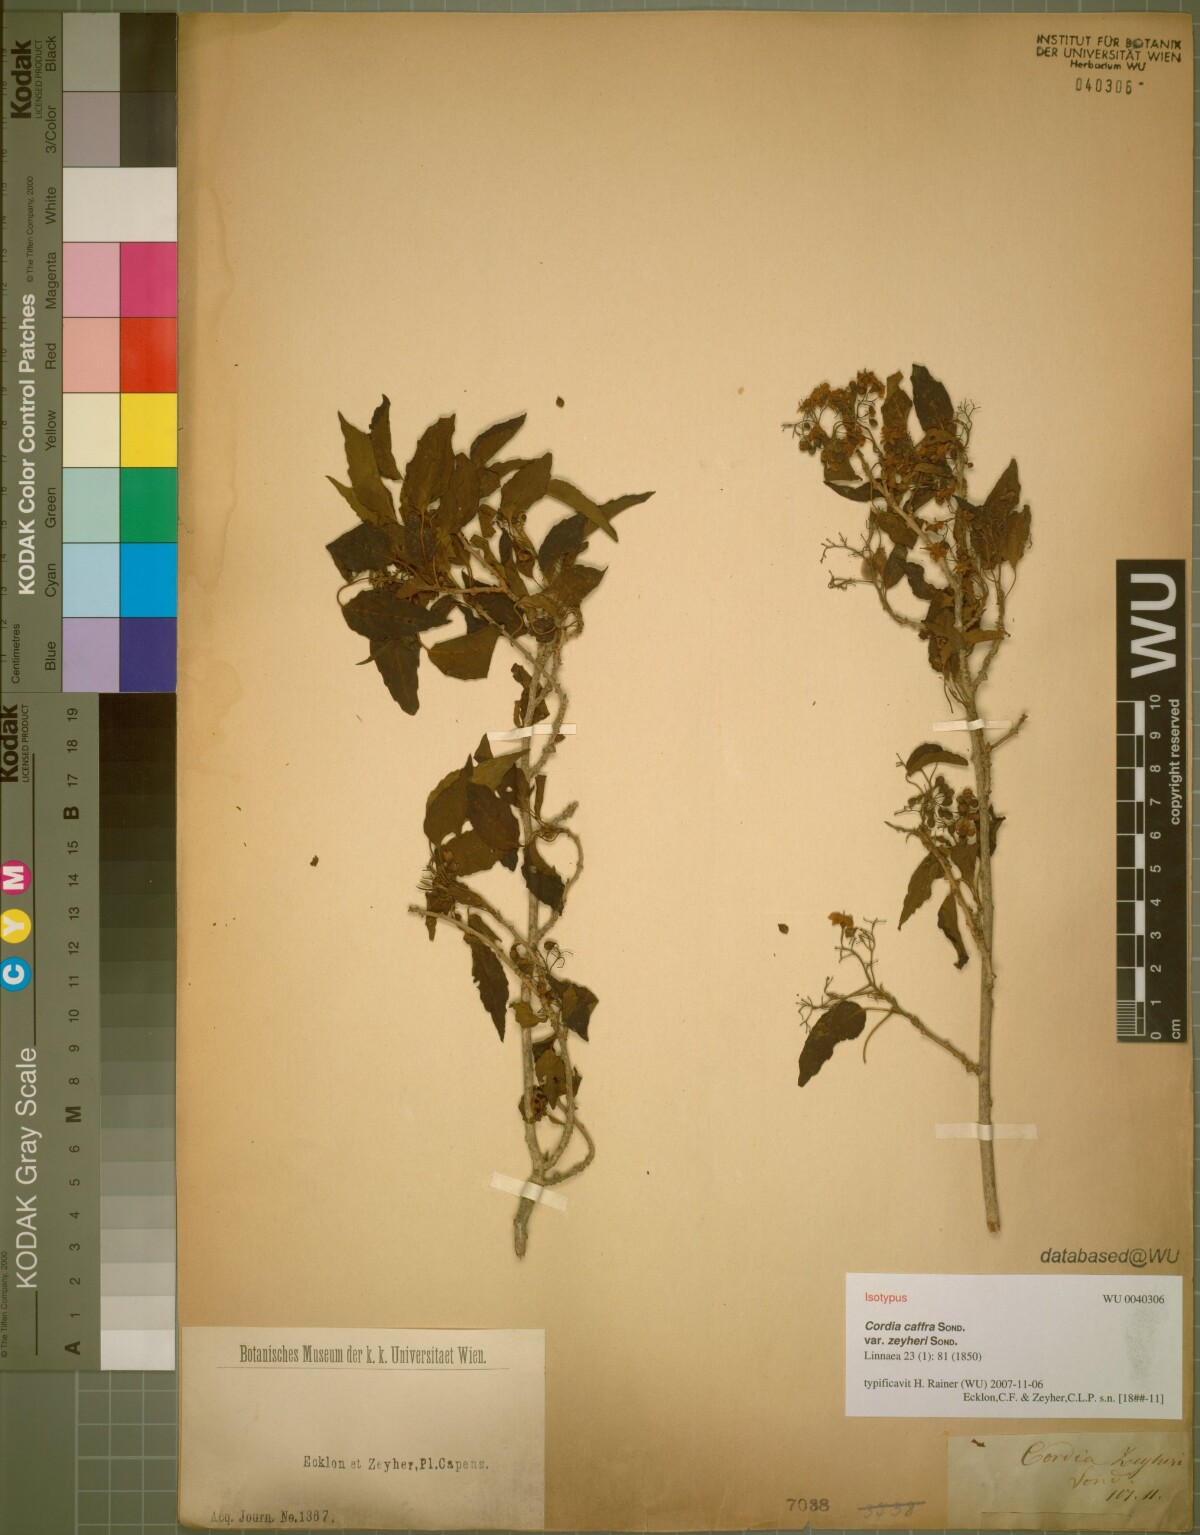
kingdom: Plantae
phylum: Tracheophyta
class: Magnoliopsida
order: Boraginales
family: Cordiaceae
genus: Cordia
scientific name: Cordia caffra
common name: Septee tree
